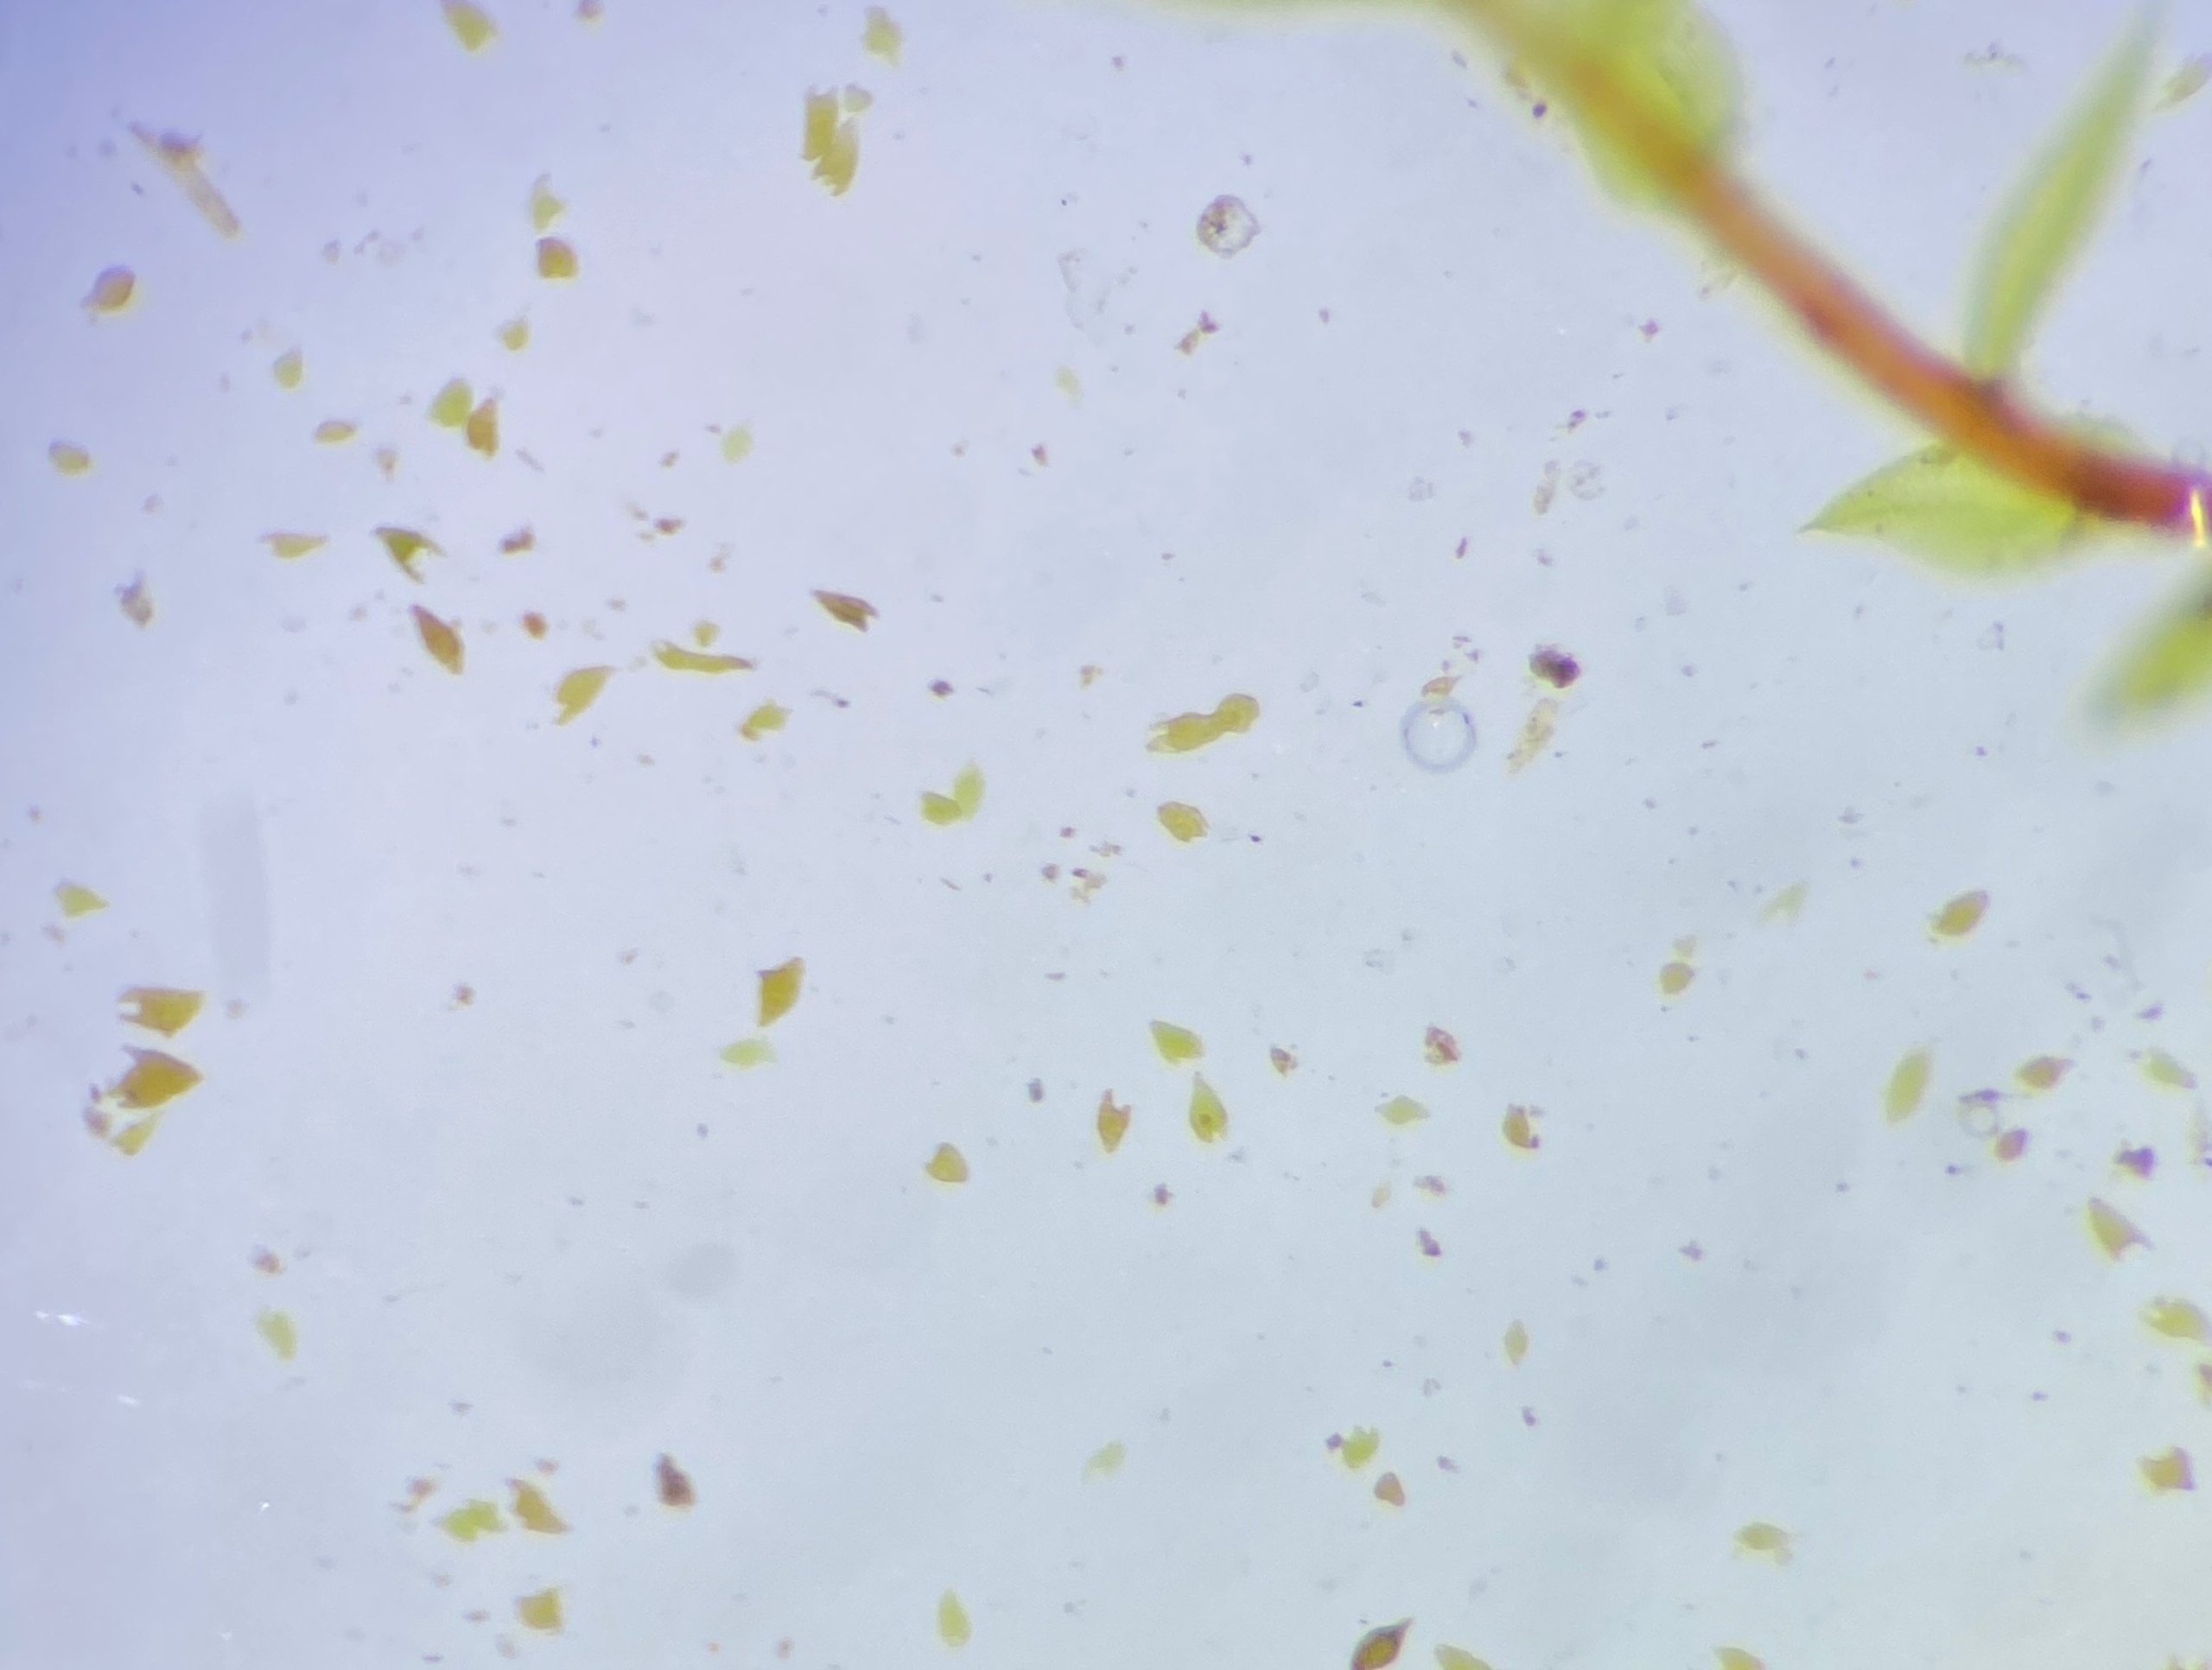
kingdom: Plantae
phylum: Bryophyta
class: Bryopsida
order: Bryales
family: Mniaceae
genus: Pohlia
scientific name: Pohlia annotina
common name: Blød nikkemos
